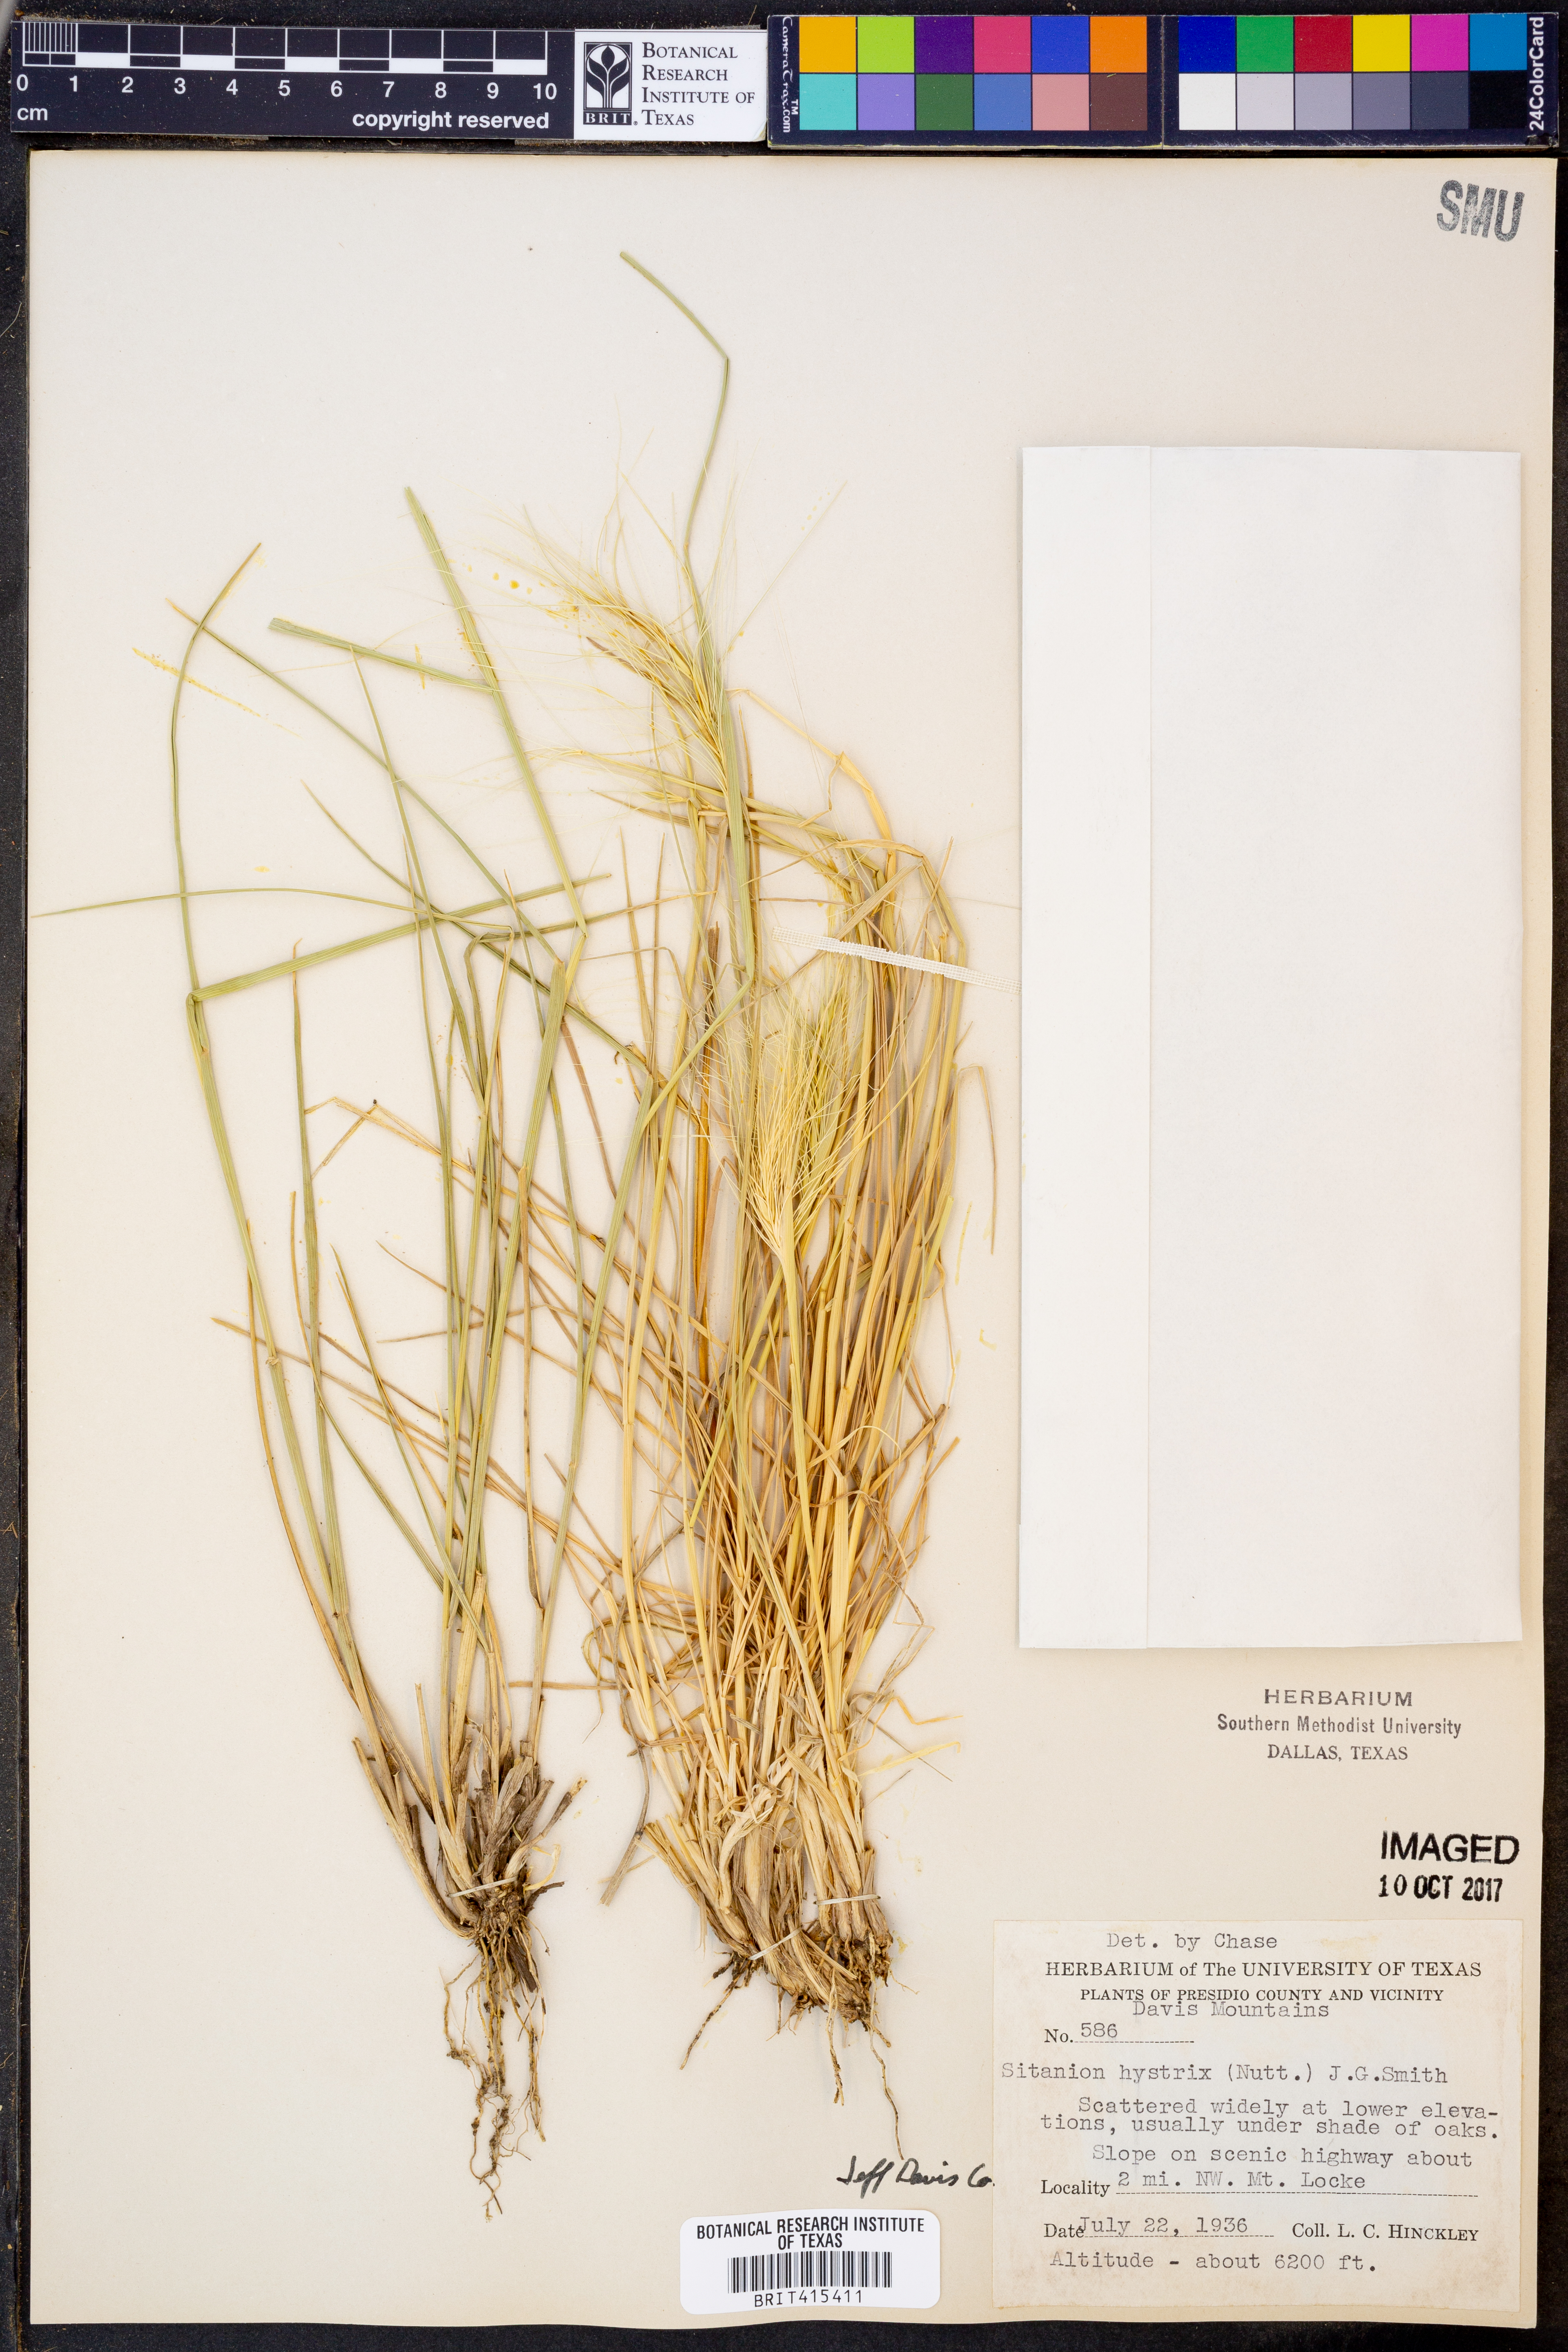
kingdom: Plantae
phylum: Tracheophyta
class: Liliopsida
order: Poales
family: Poaceae
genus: Elymus
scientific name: Elymus elymoides
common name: Bottlebrush squirreltail
